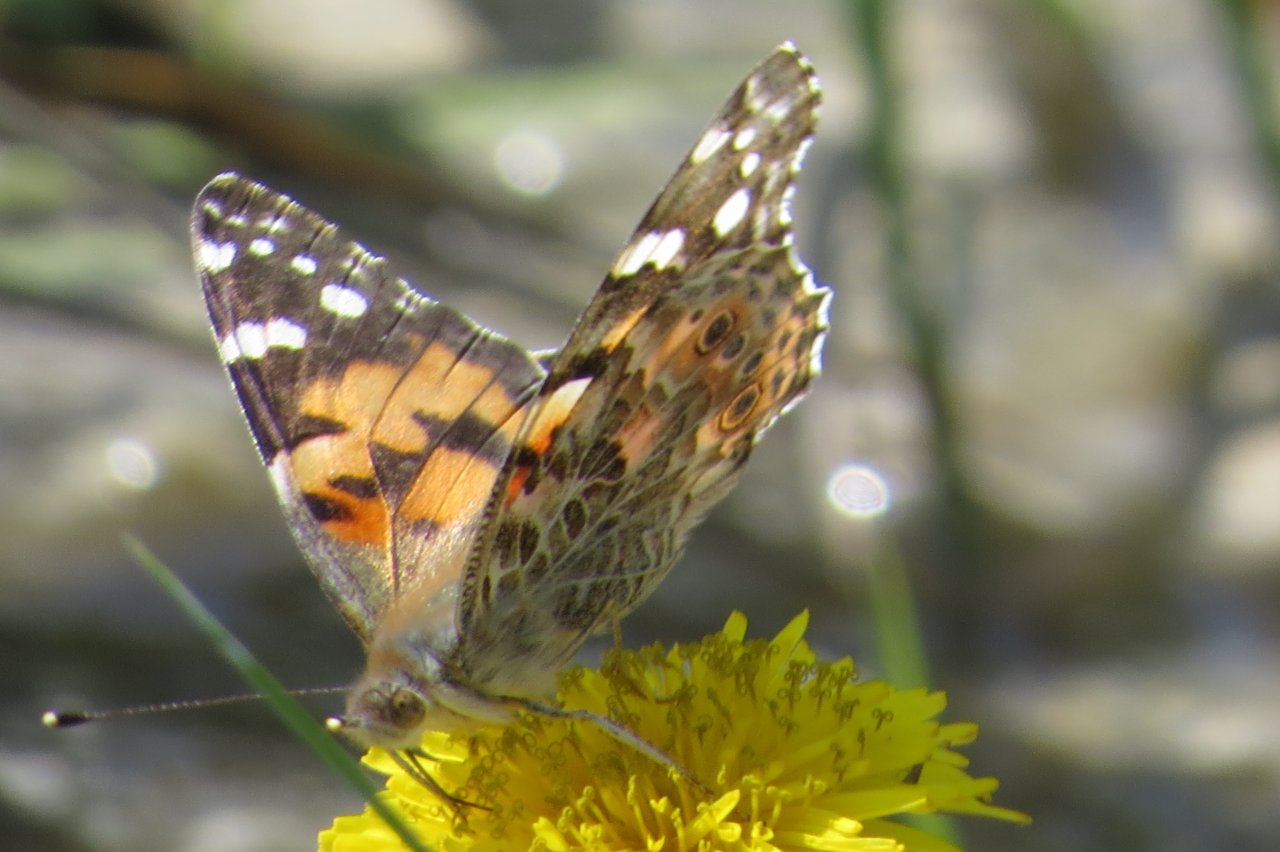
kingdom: Animalia
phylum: Arthropoda
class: Insecta
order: Lepidoptera
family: Nymphalidae
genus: Vanessa
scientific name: Vanessa cardui
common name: Painted Lady
